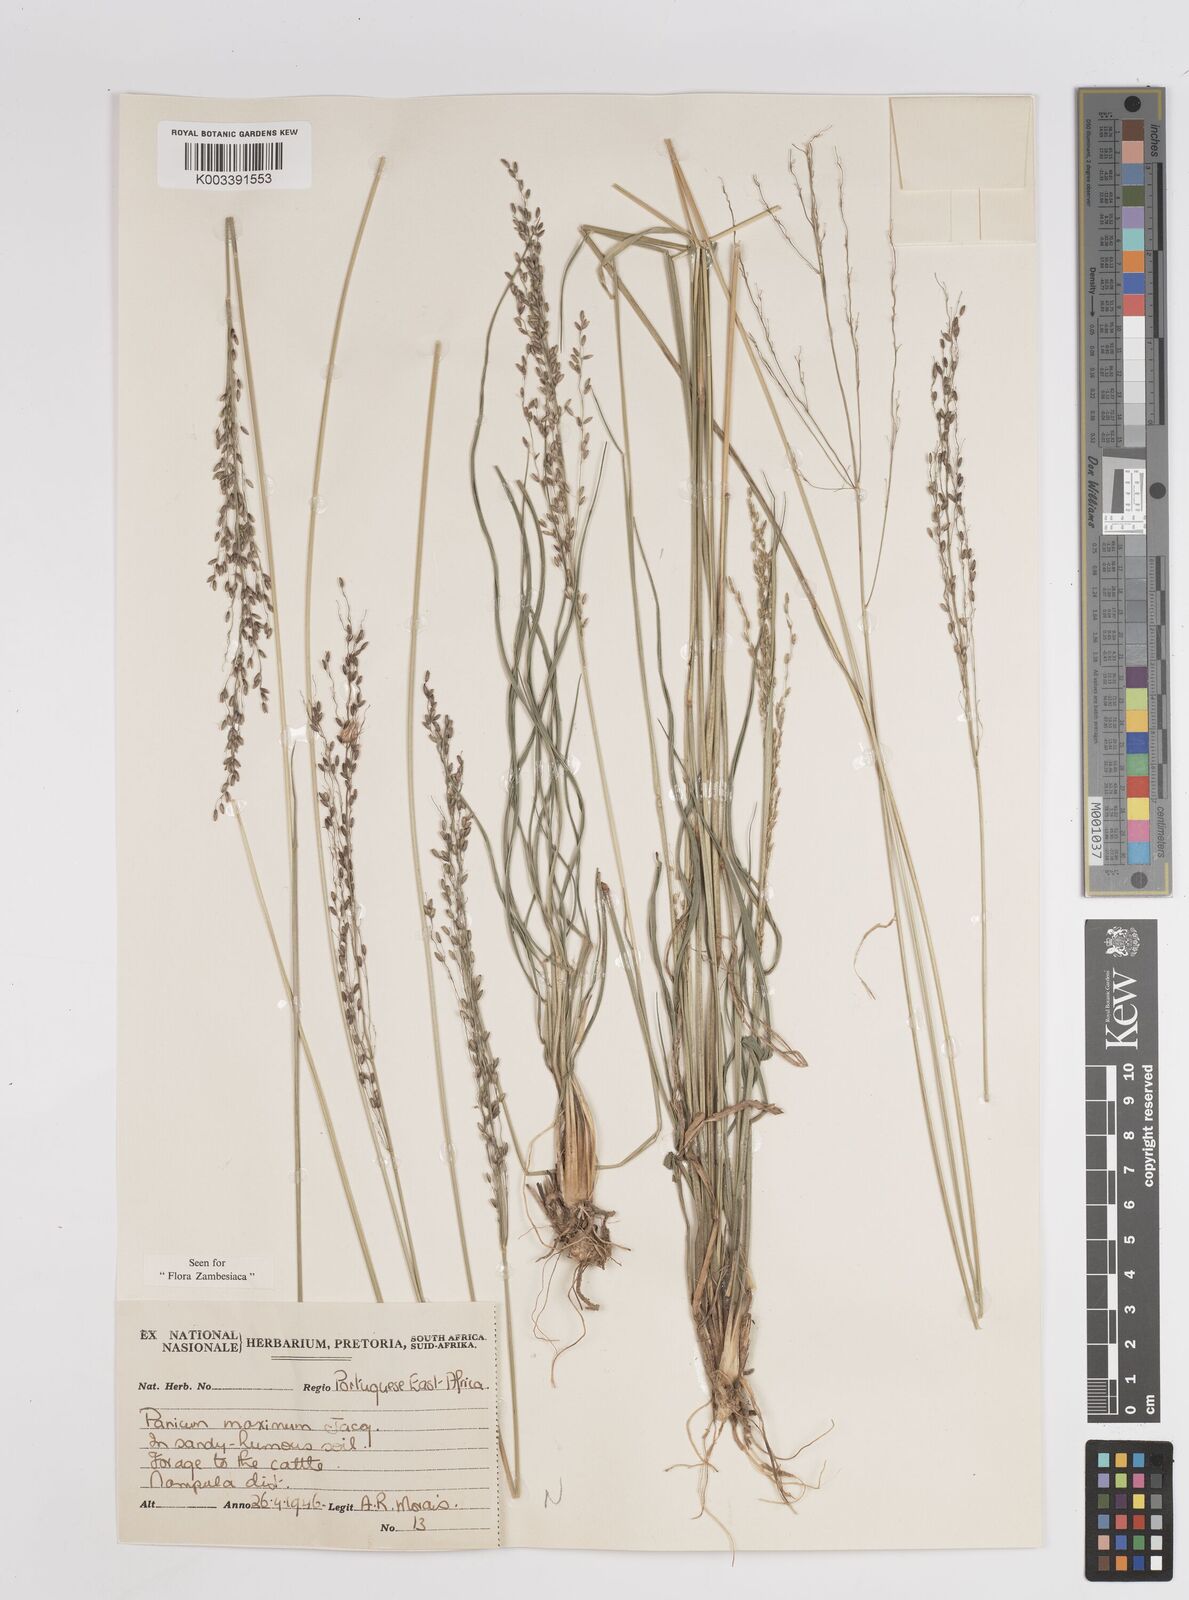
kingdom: Plantae
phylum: Tracheophyta
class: Liliopsida
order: Poales
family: Poaceae
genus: Megathyrsus
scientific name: Megathyrsus maximus
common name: Guineagrass
